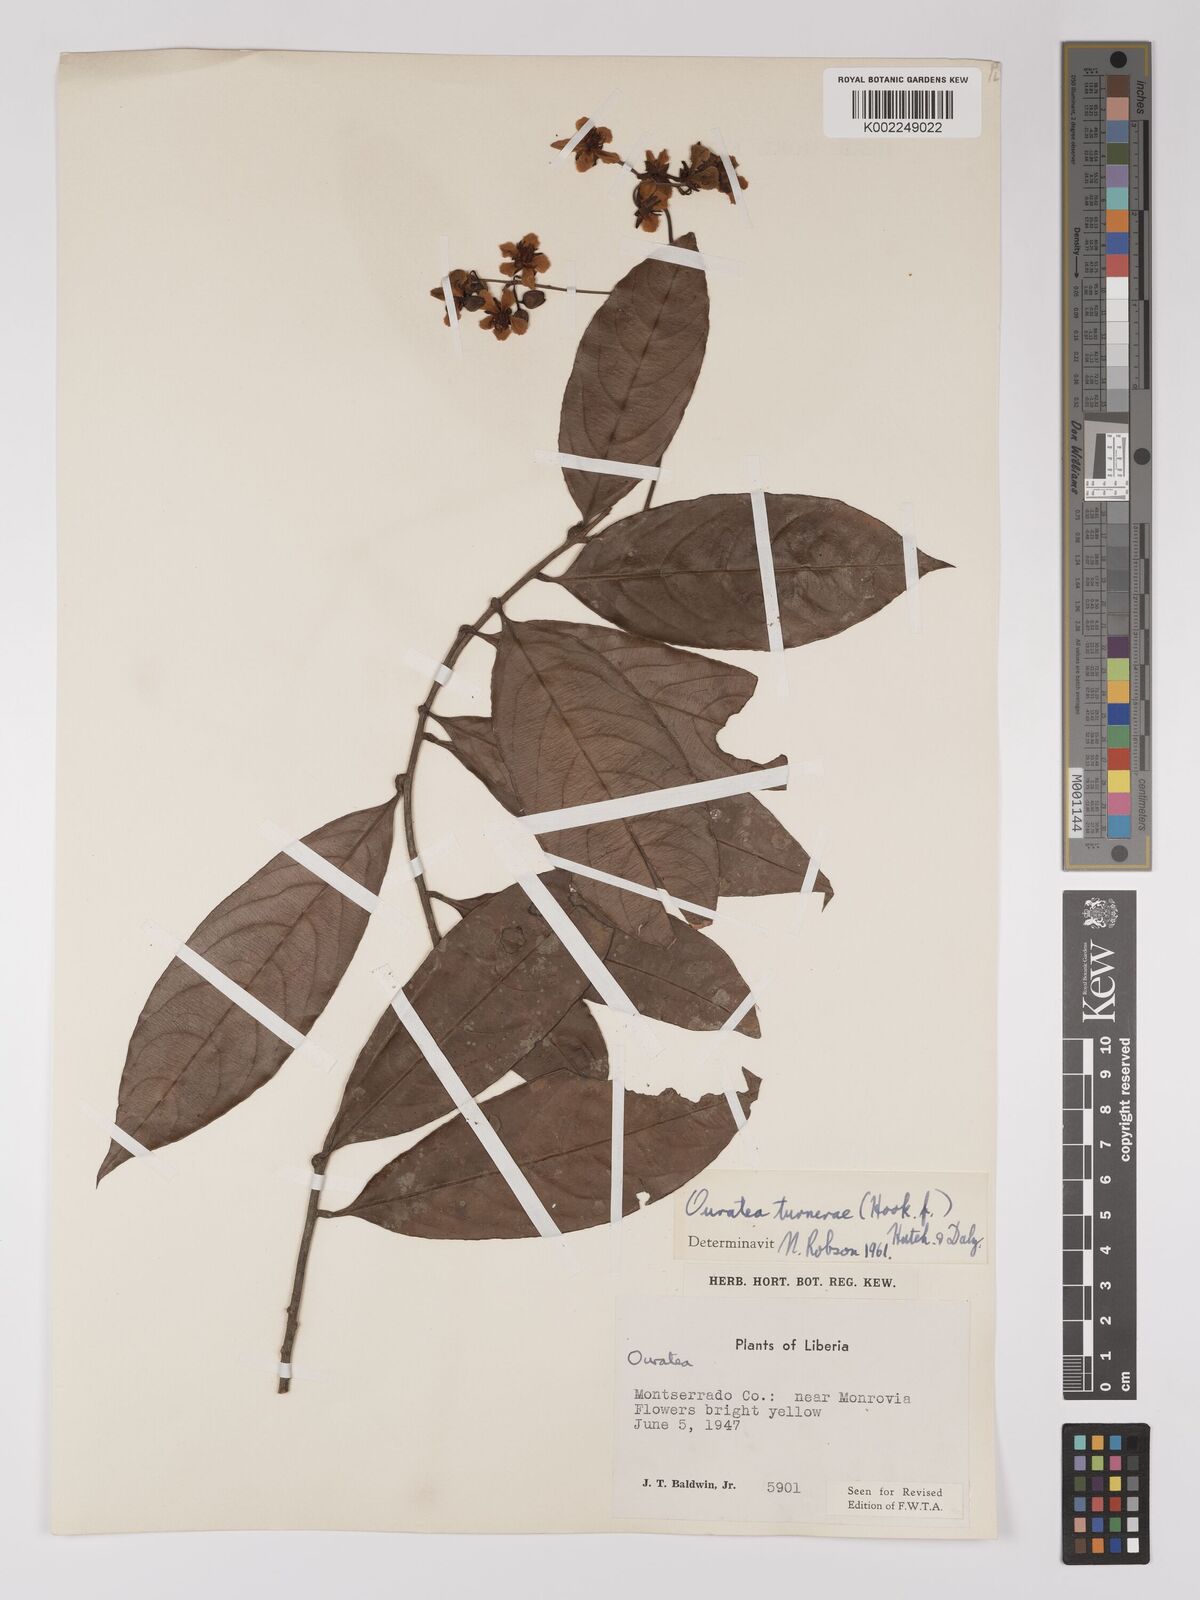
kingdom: Plantae
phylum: Tracheophyta
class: Magnoliopsida
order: Malpighiales
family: Ochnaceae
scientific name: Ochnaceae
